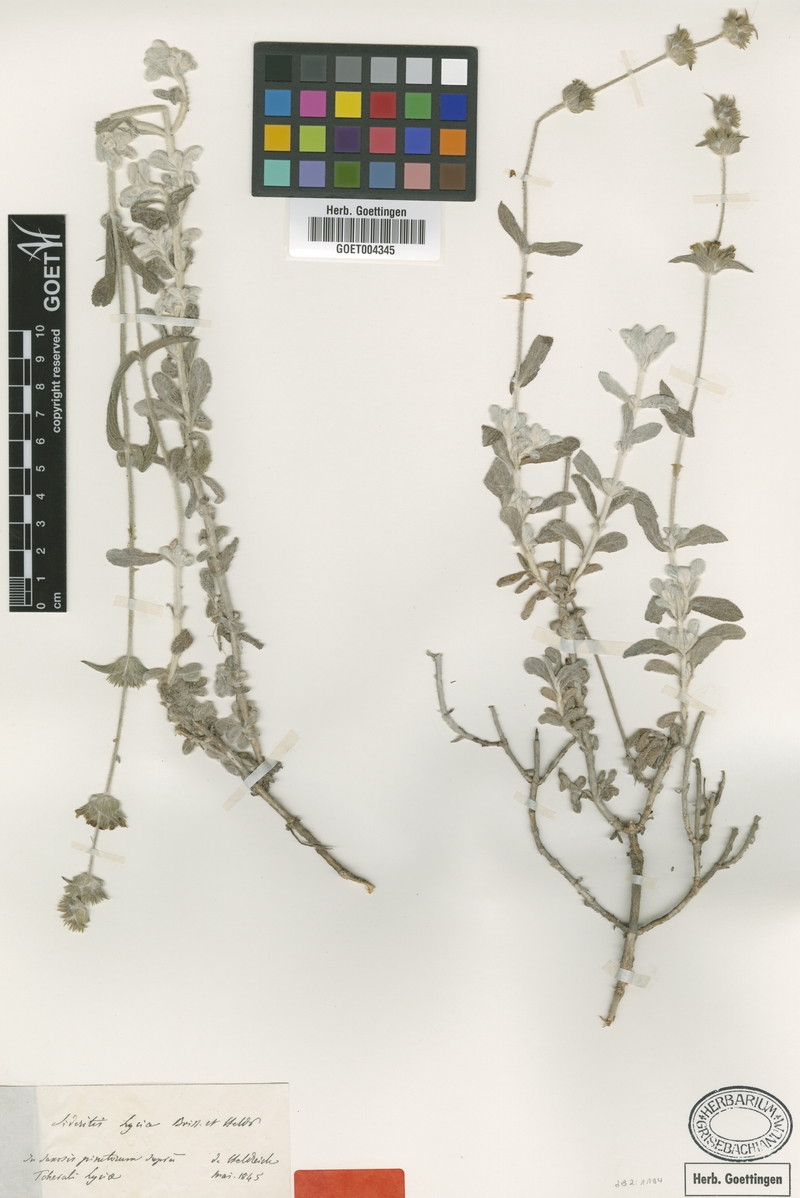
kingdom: Plantae
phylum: Tracheophyta
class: Magnoliopsida
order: Lamiales
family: Lamiaceae
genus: Sideritis
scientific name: Sideritis lycia
